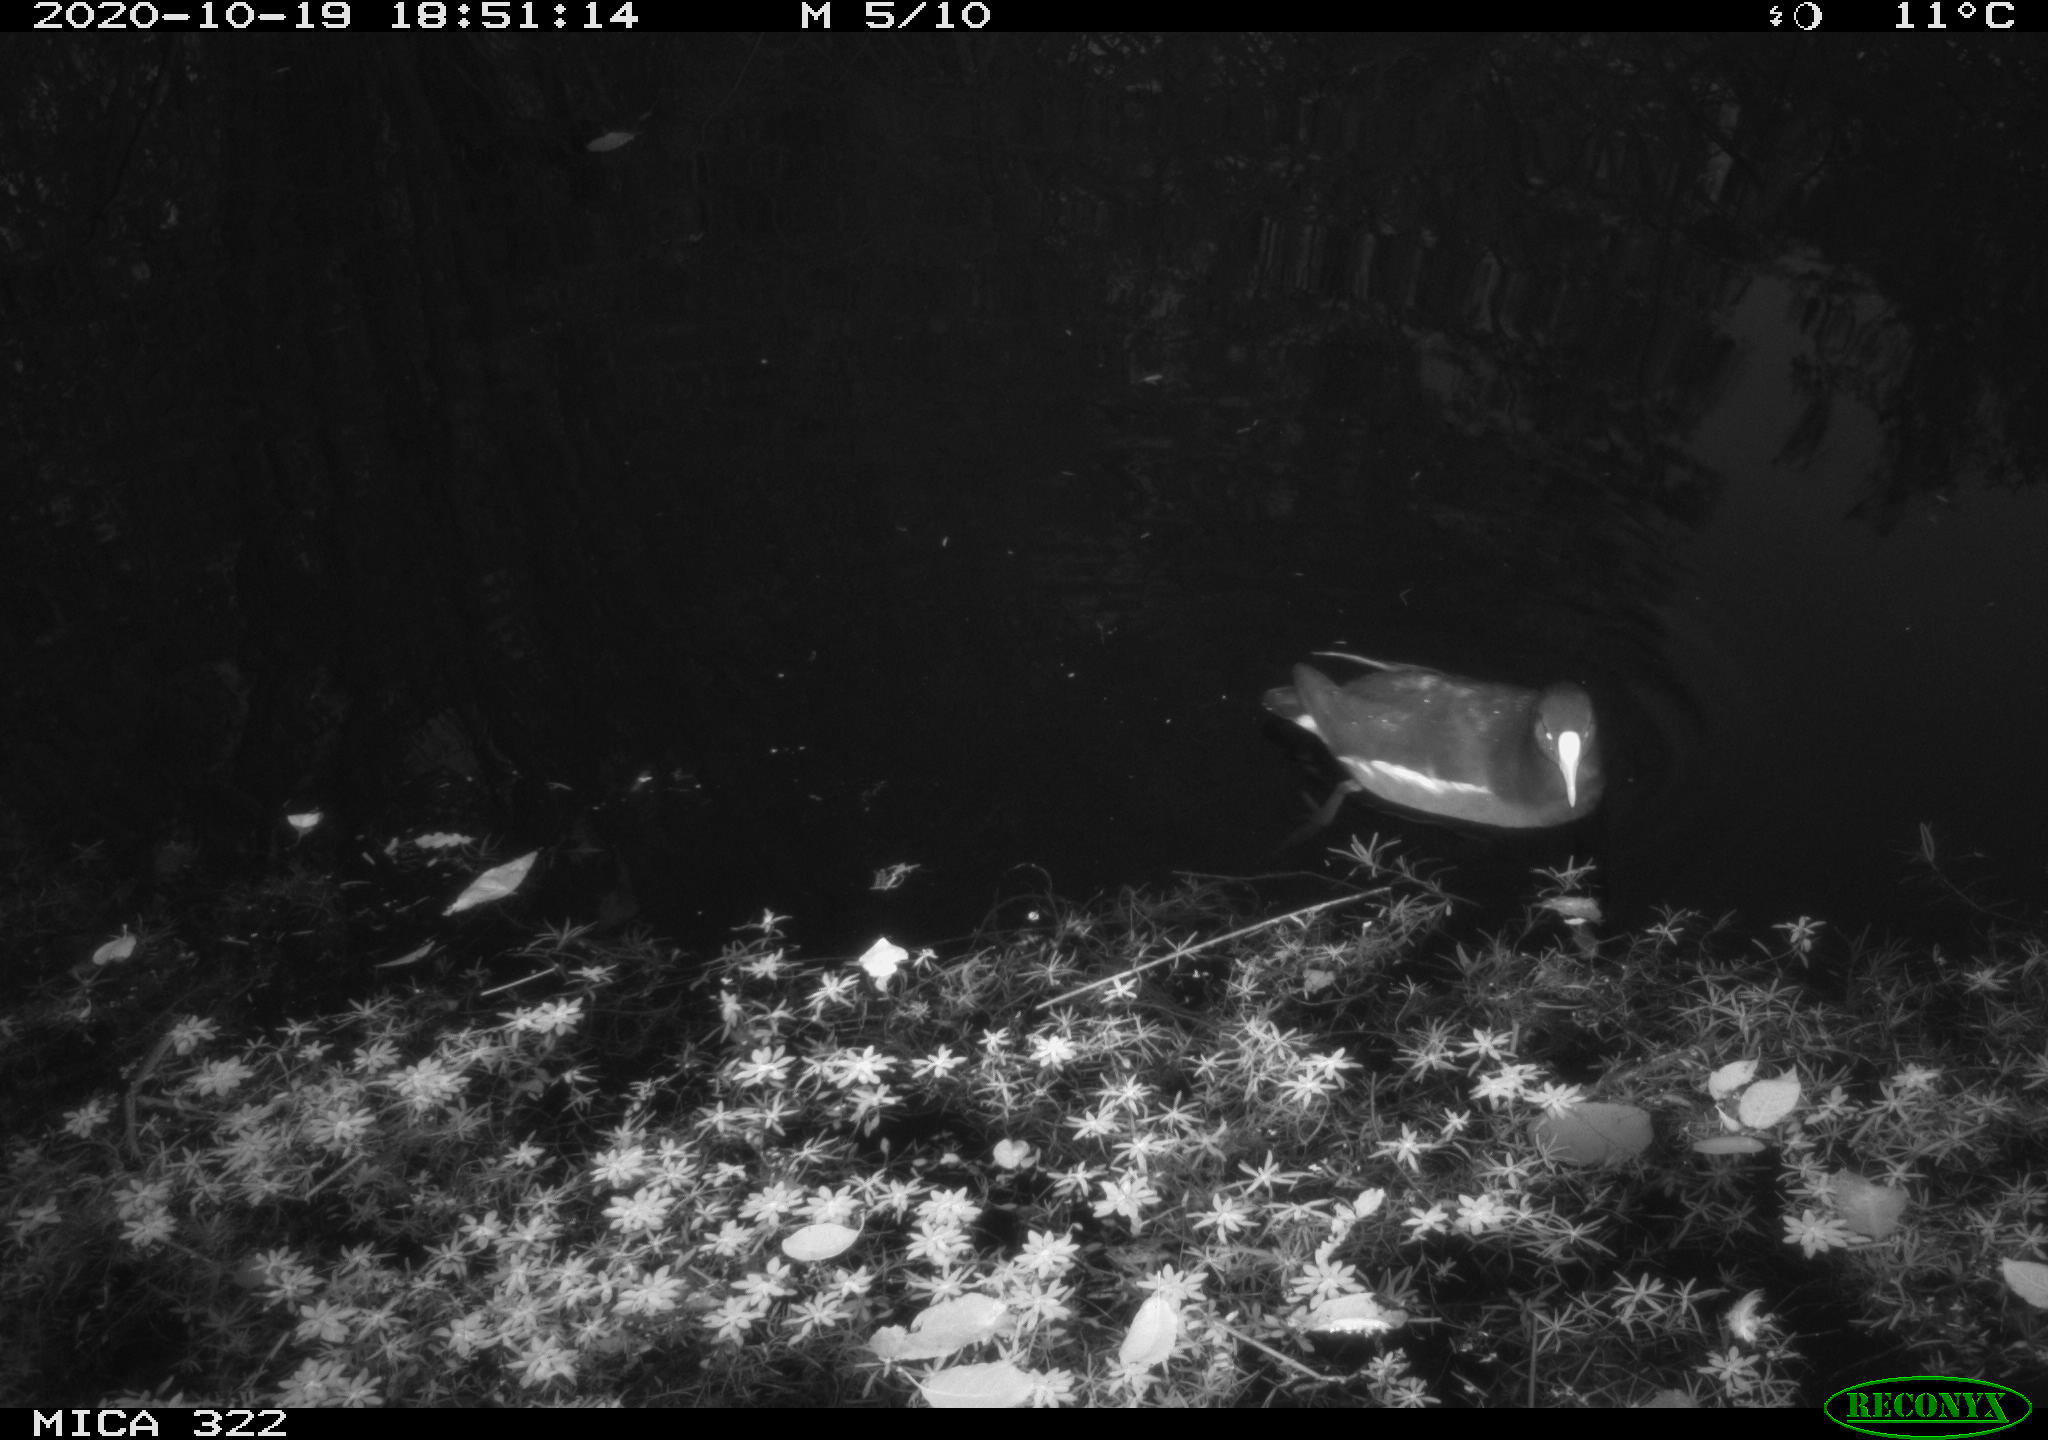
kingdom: Animalia
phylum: Chordata
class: Aves
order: Gruiformes
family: Rallidae
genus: Gallinula
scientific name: Gallinula chloropus
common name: Common moorhen
